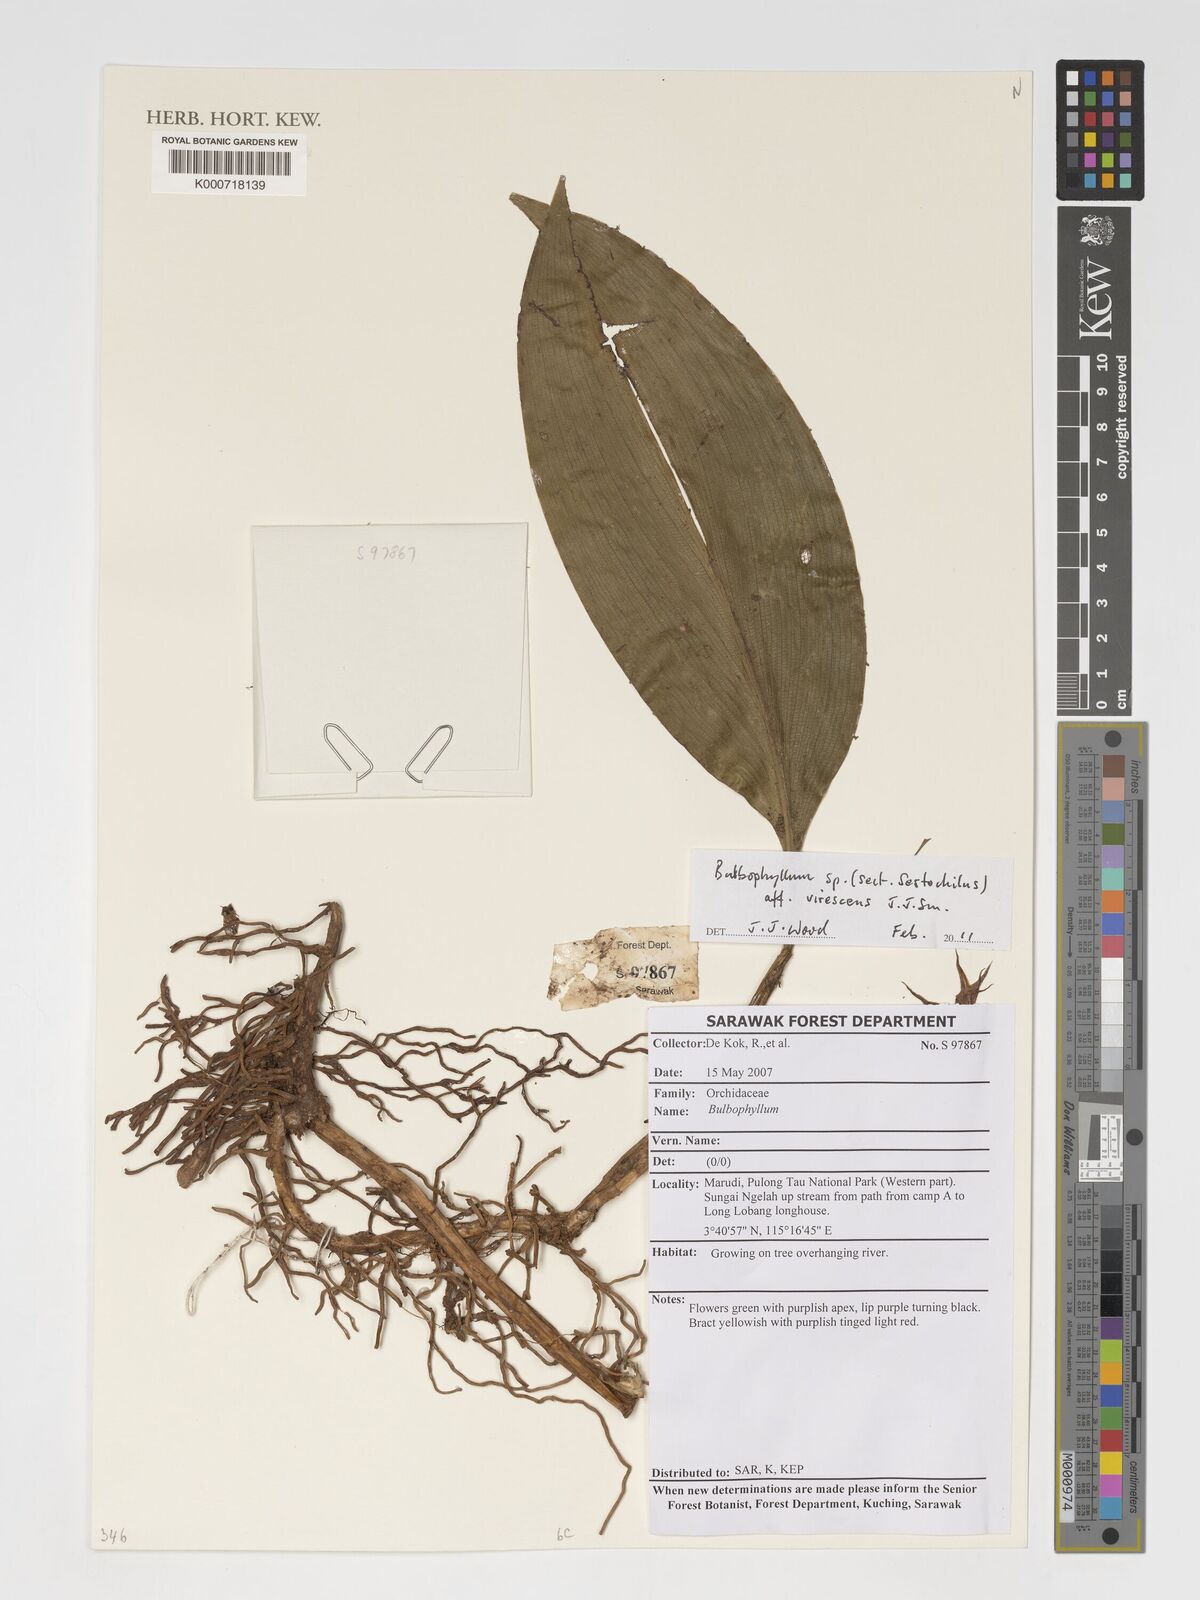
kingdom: Plantae
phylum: Tracheophyta
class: Liliopsida
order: Asparagales
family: Orchidaceae
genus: Bulbophyllum
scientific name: Bulbophyllum ericssonii
